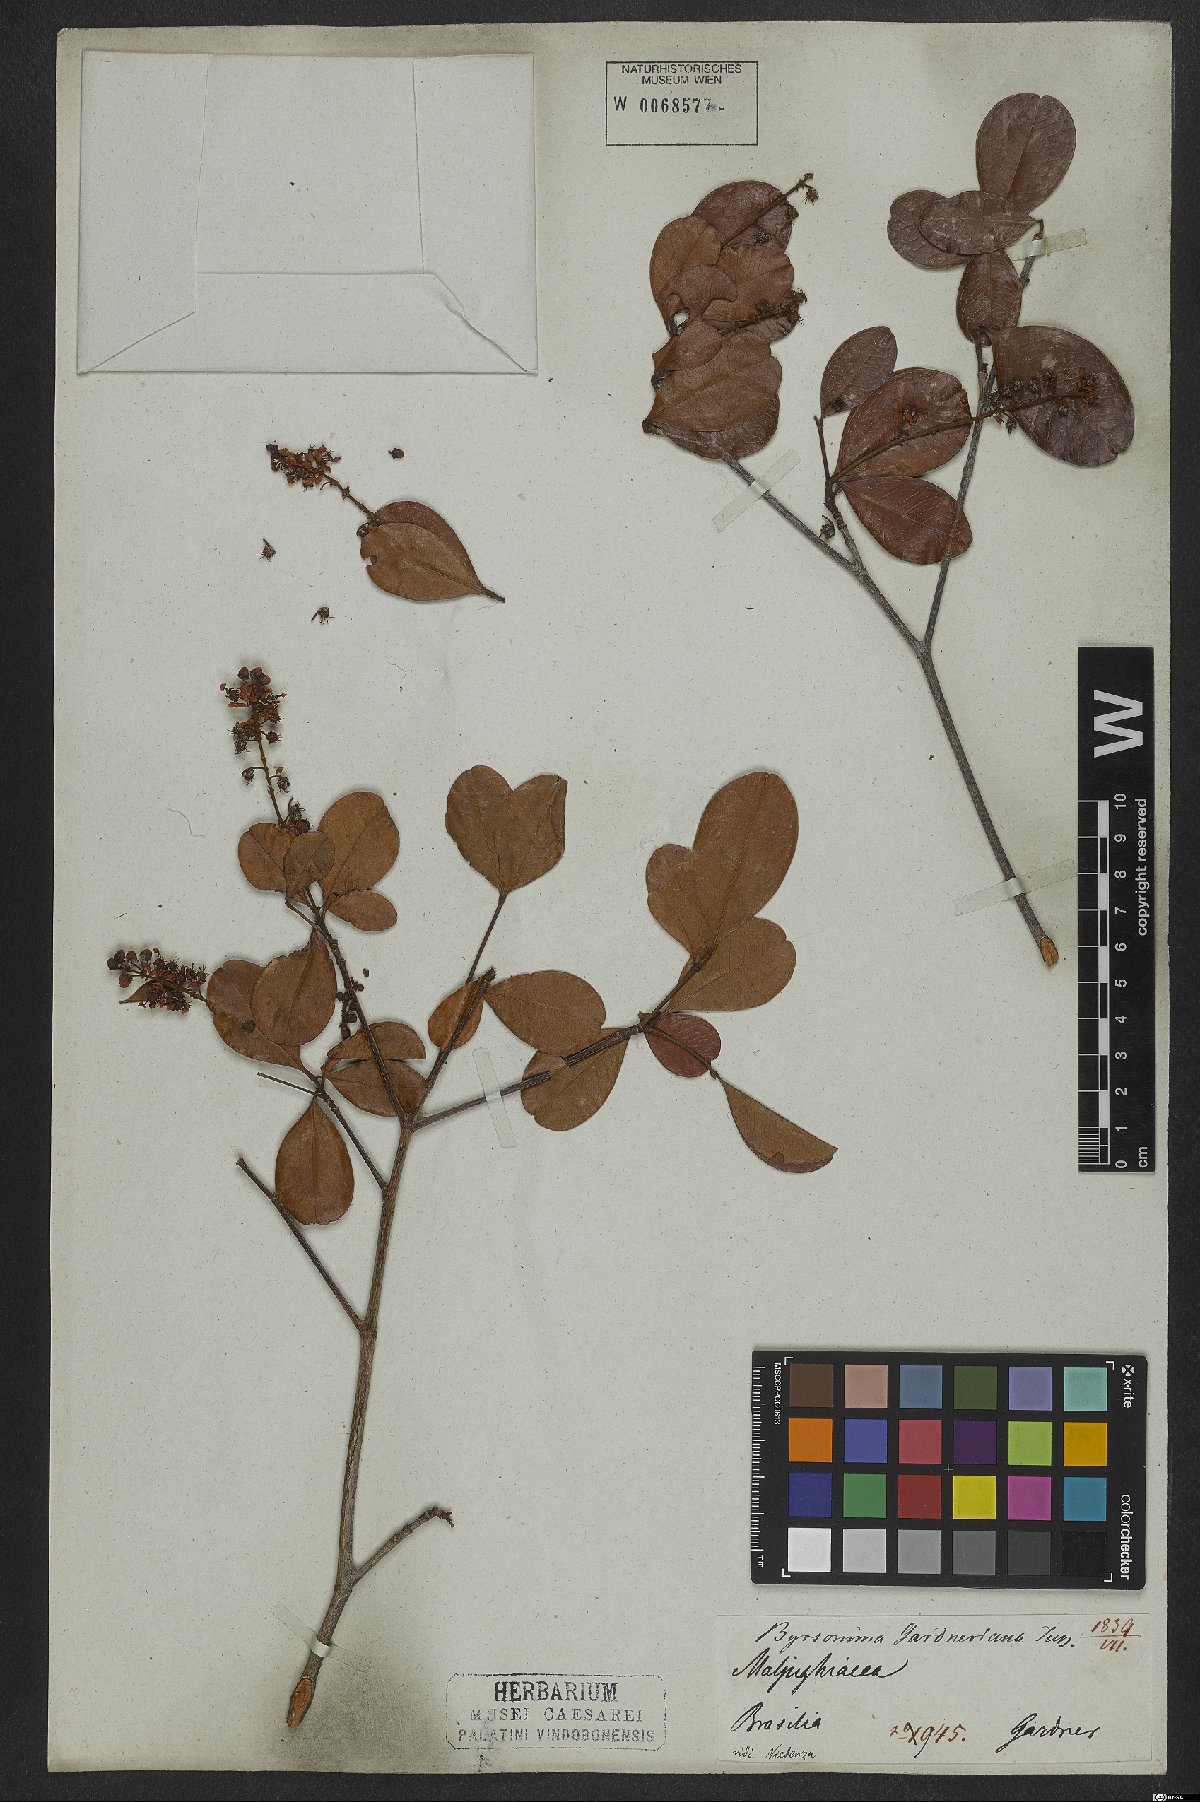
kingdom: Plantae
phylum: Tracheophyta
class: Magnoliopsida
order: Malpighiales
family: Malpighiaceae
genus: Byrsonima
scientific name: Byrsonima gardneriana
